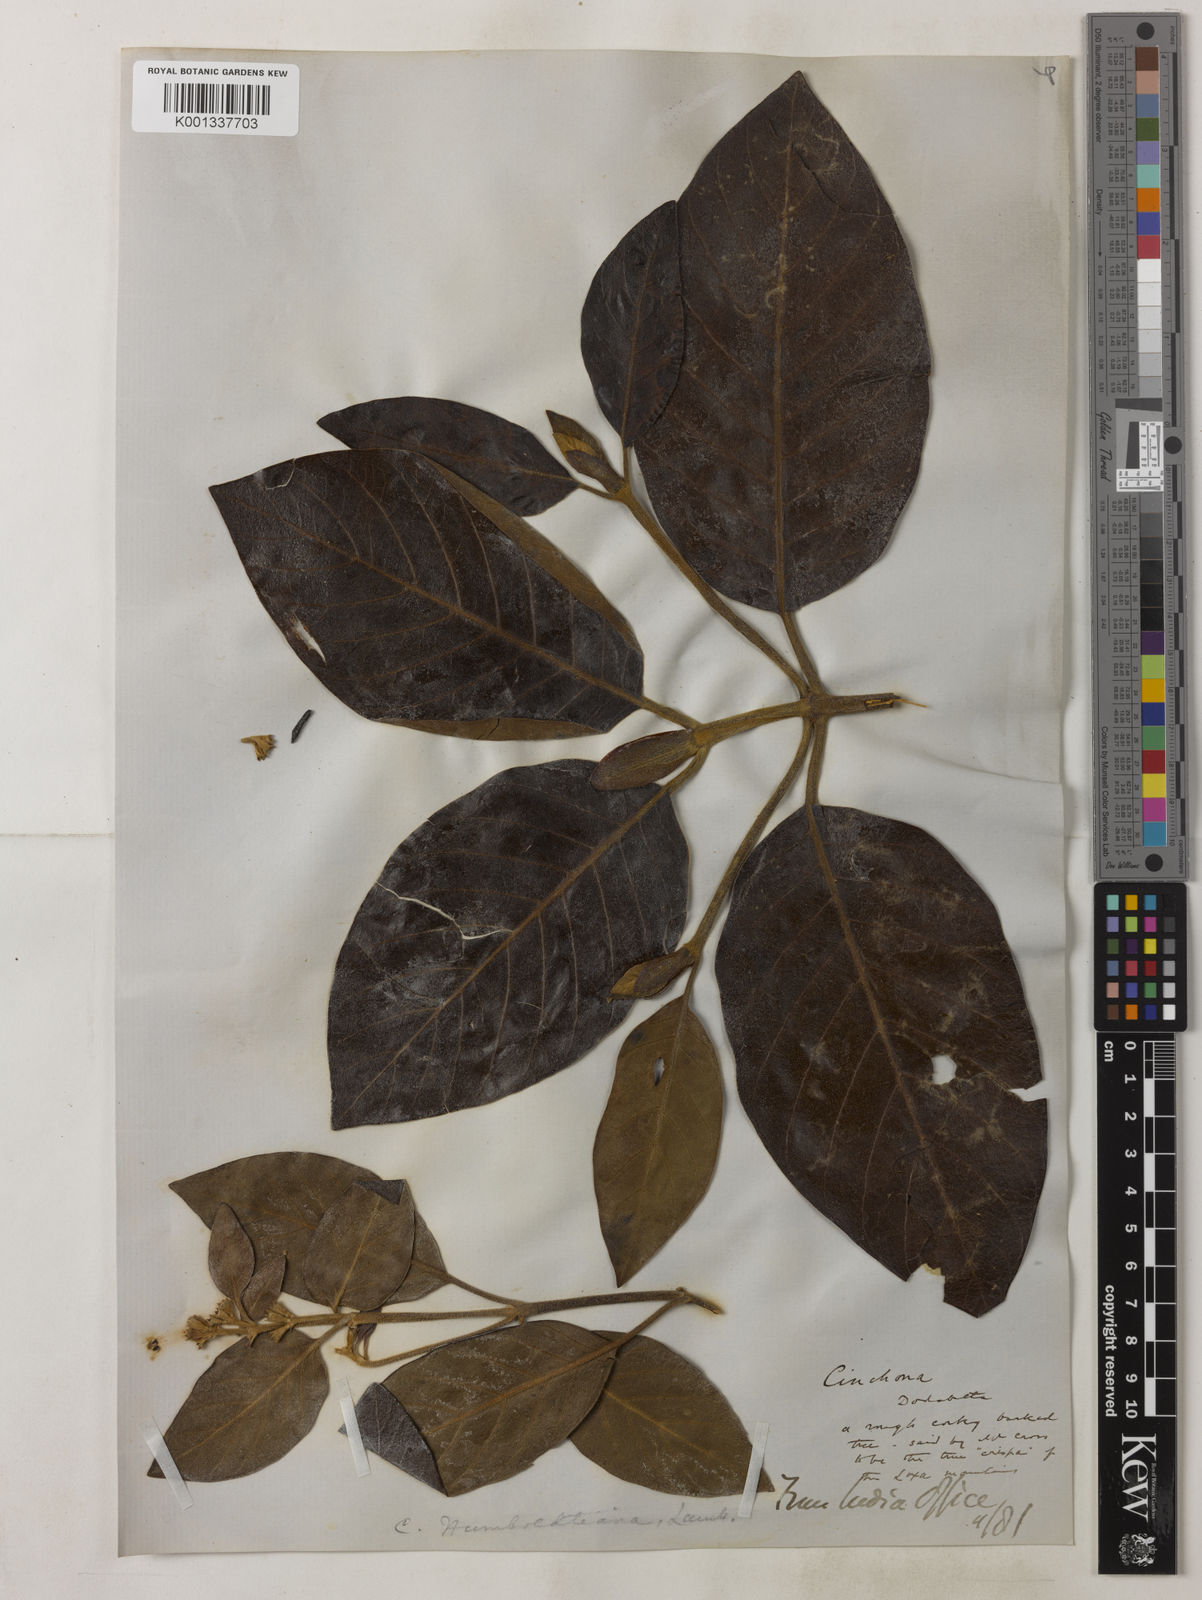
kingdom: Plantae
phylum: Tracheophyta
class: Magnoliopsida
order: Gentianales
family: Rubiaceae
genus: Cinchona
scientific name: Cinchona
